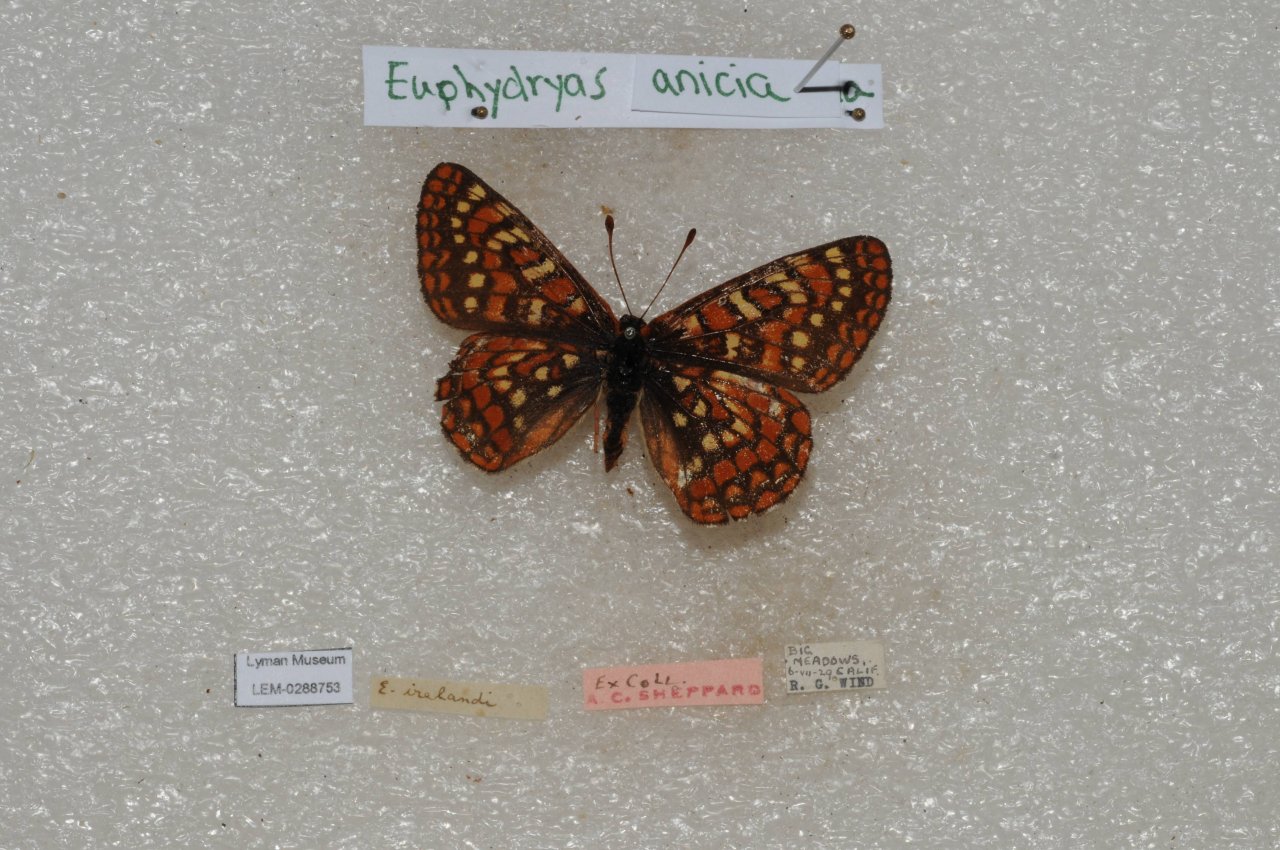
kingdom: Animalia
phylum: Arthropoda
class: Insecta
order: Lepidoptera
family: Nymphalidae
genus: Occidryas
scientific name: Occidryas anicia
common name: Anicia Checkerspot
